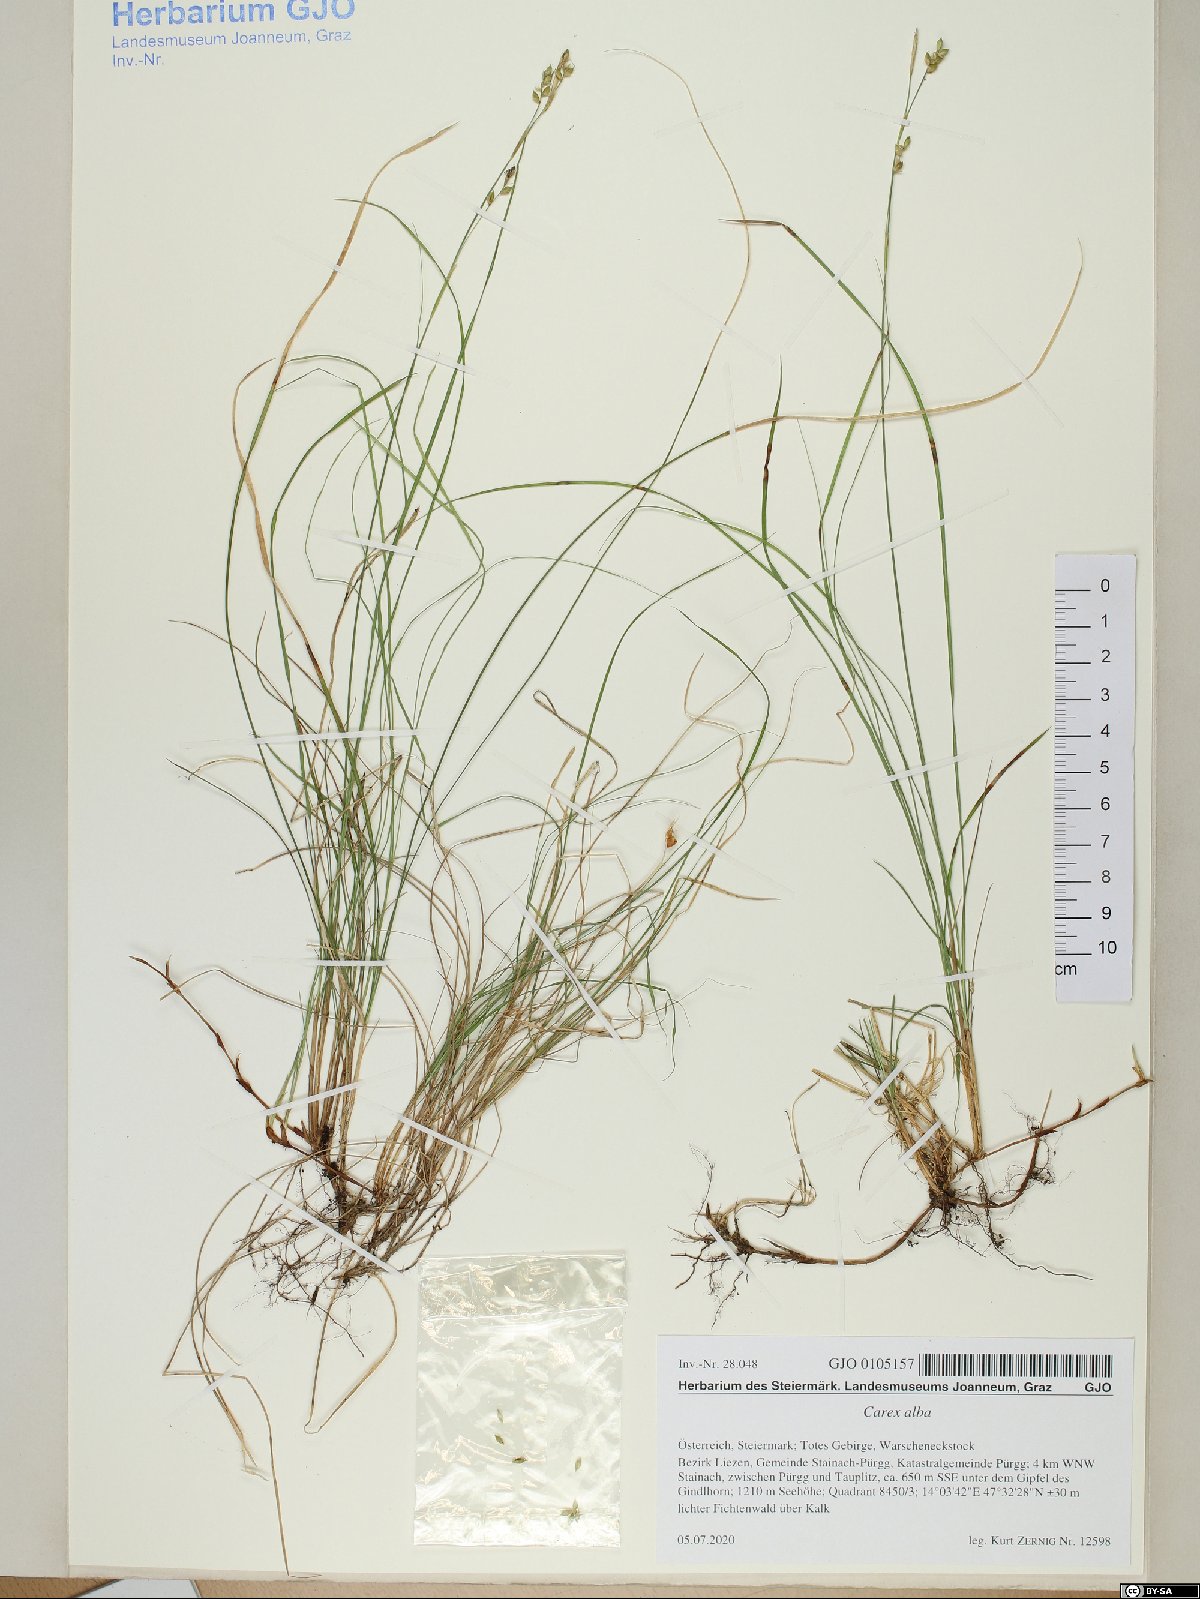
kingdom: Plantae
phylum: Tracheophyta
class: Liliopsida
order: Poales
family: Cyperaceae
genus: Carex
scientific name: Carex alba
